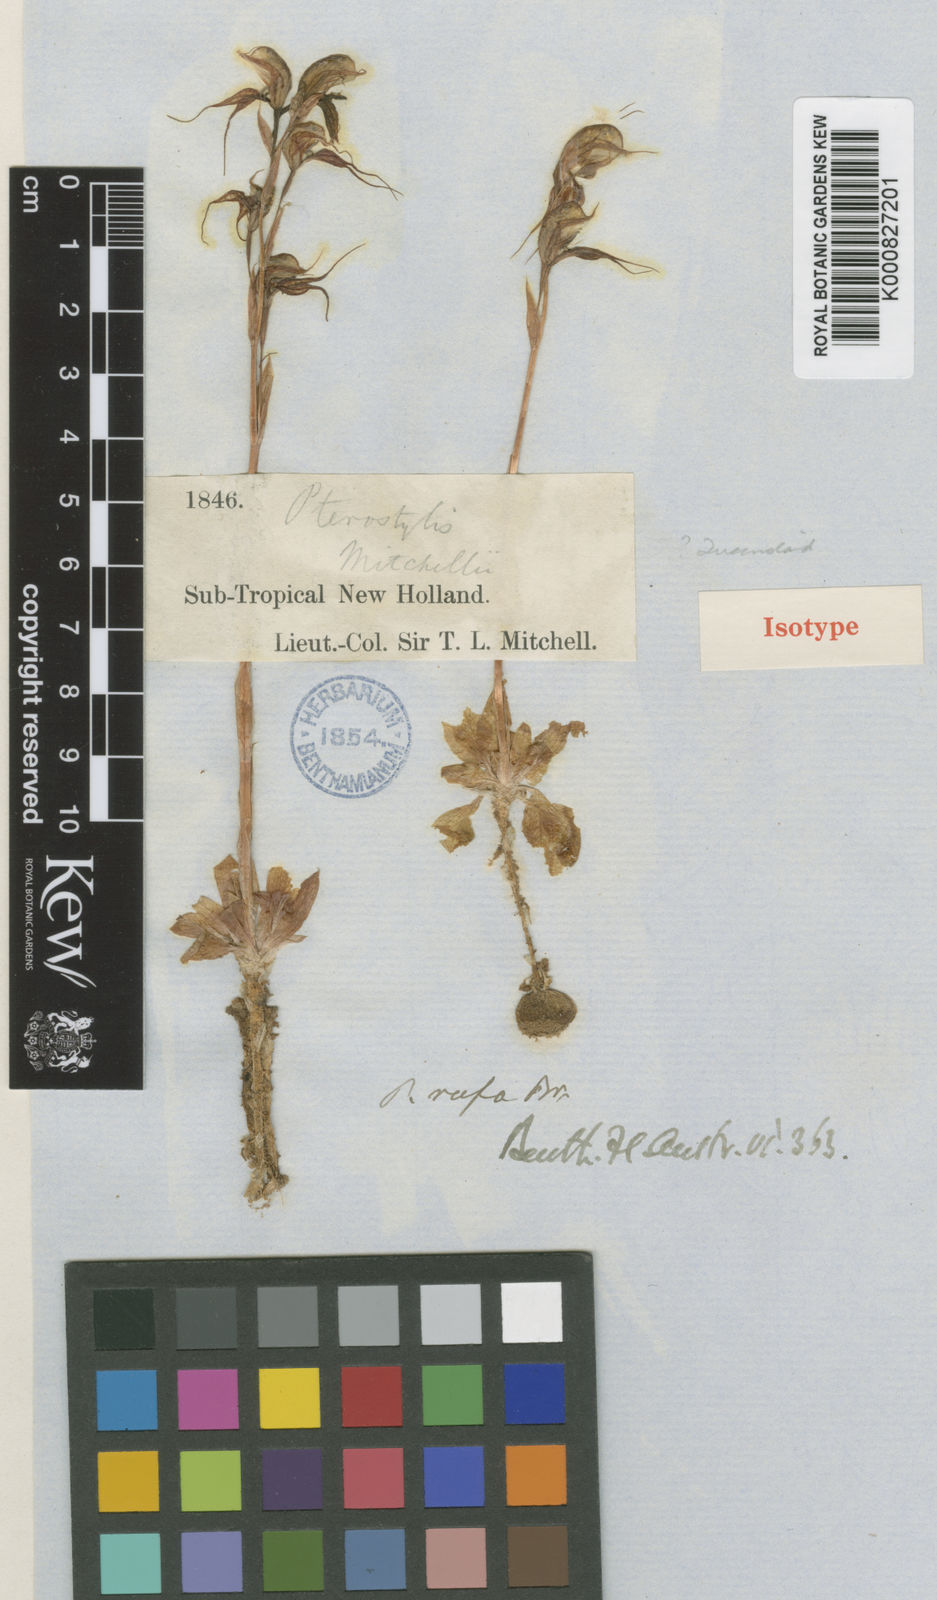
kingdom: Plantae
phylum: Tracheophyta
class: Liliopsida
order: Asparagales
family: Orchidaceae
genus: Pterostylis
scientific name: Pterostylis mitchellii
